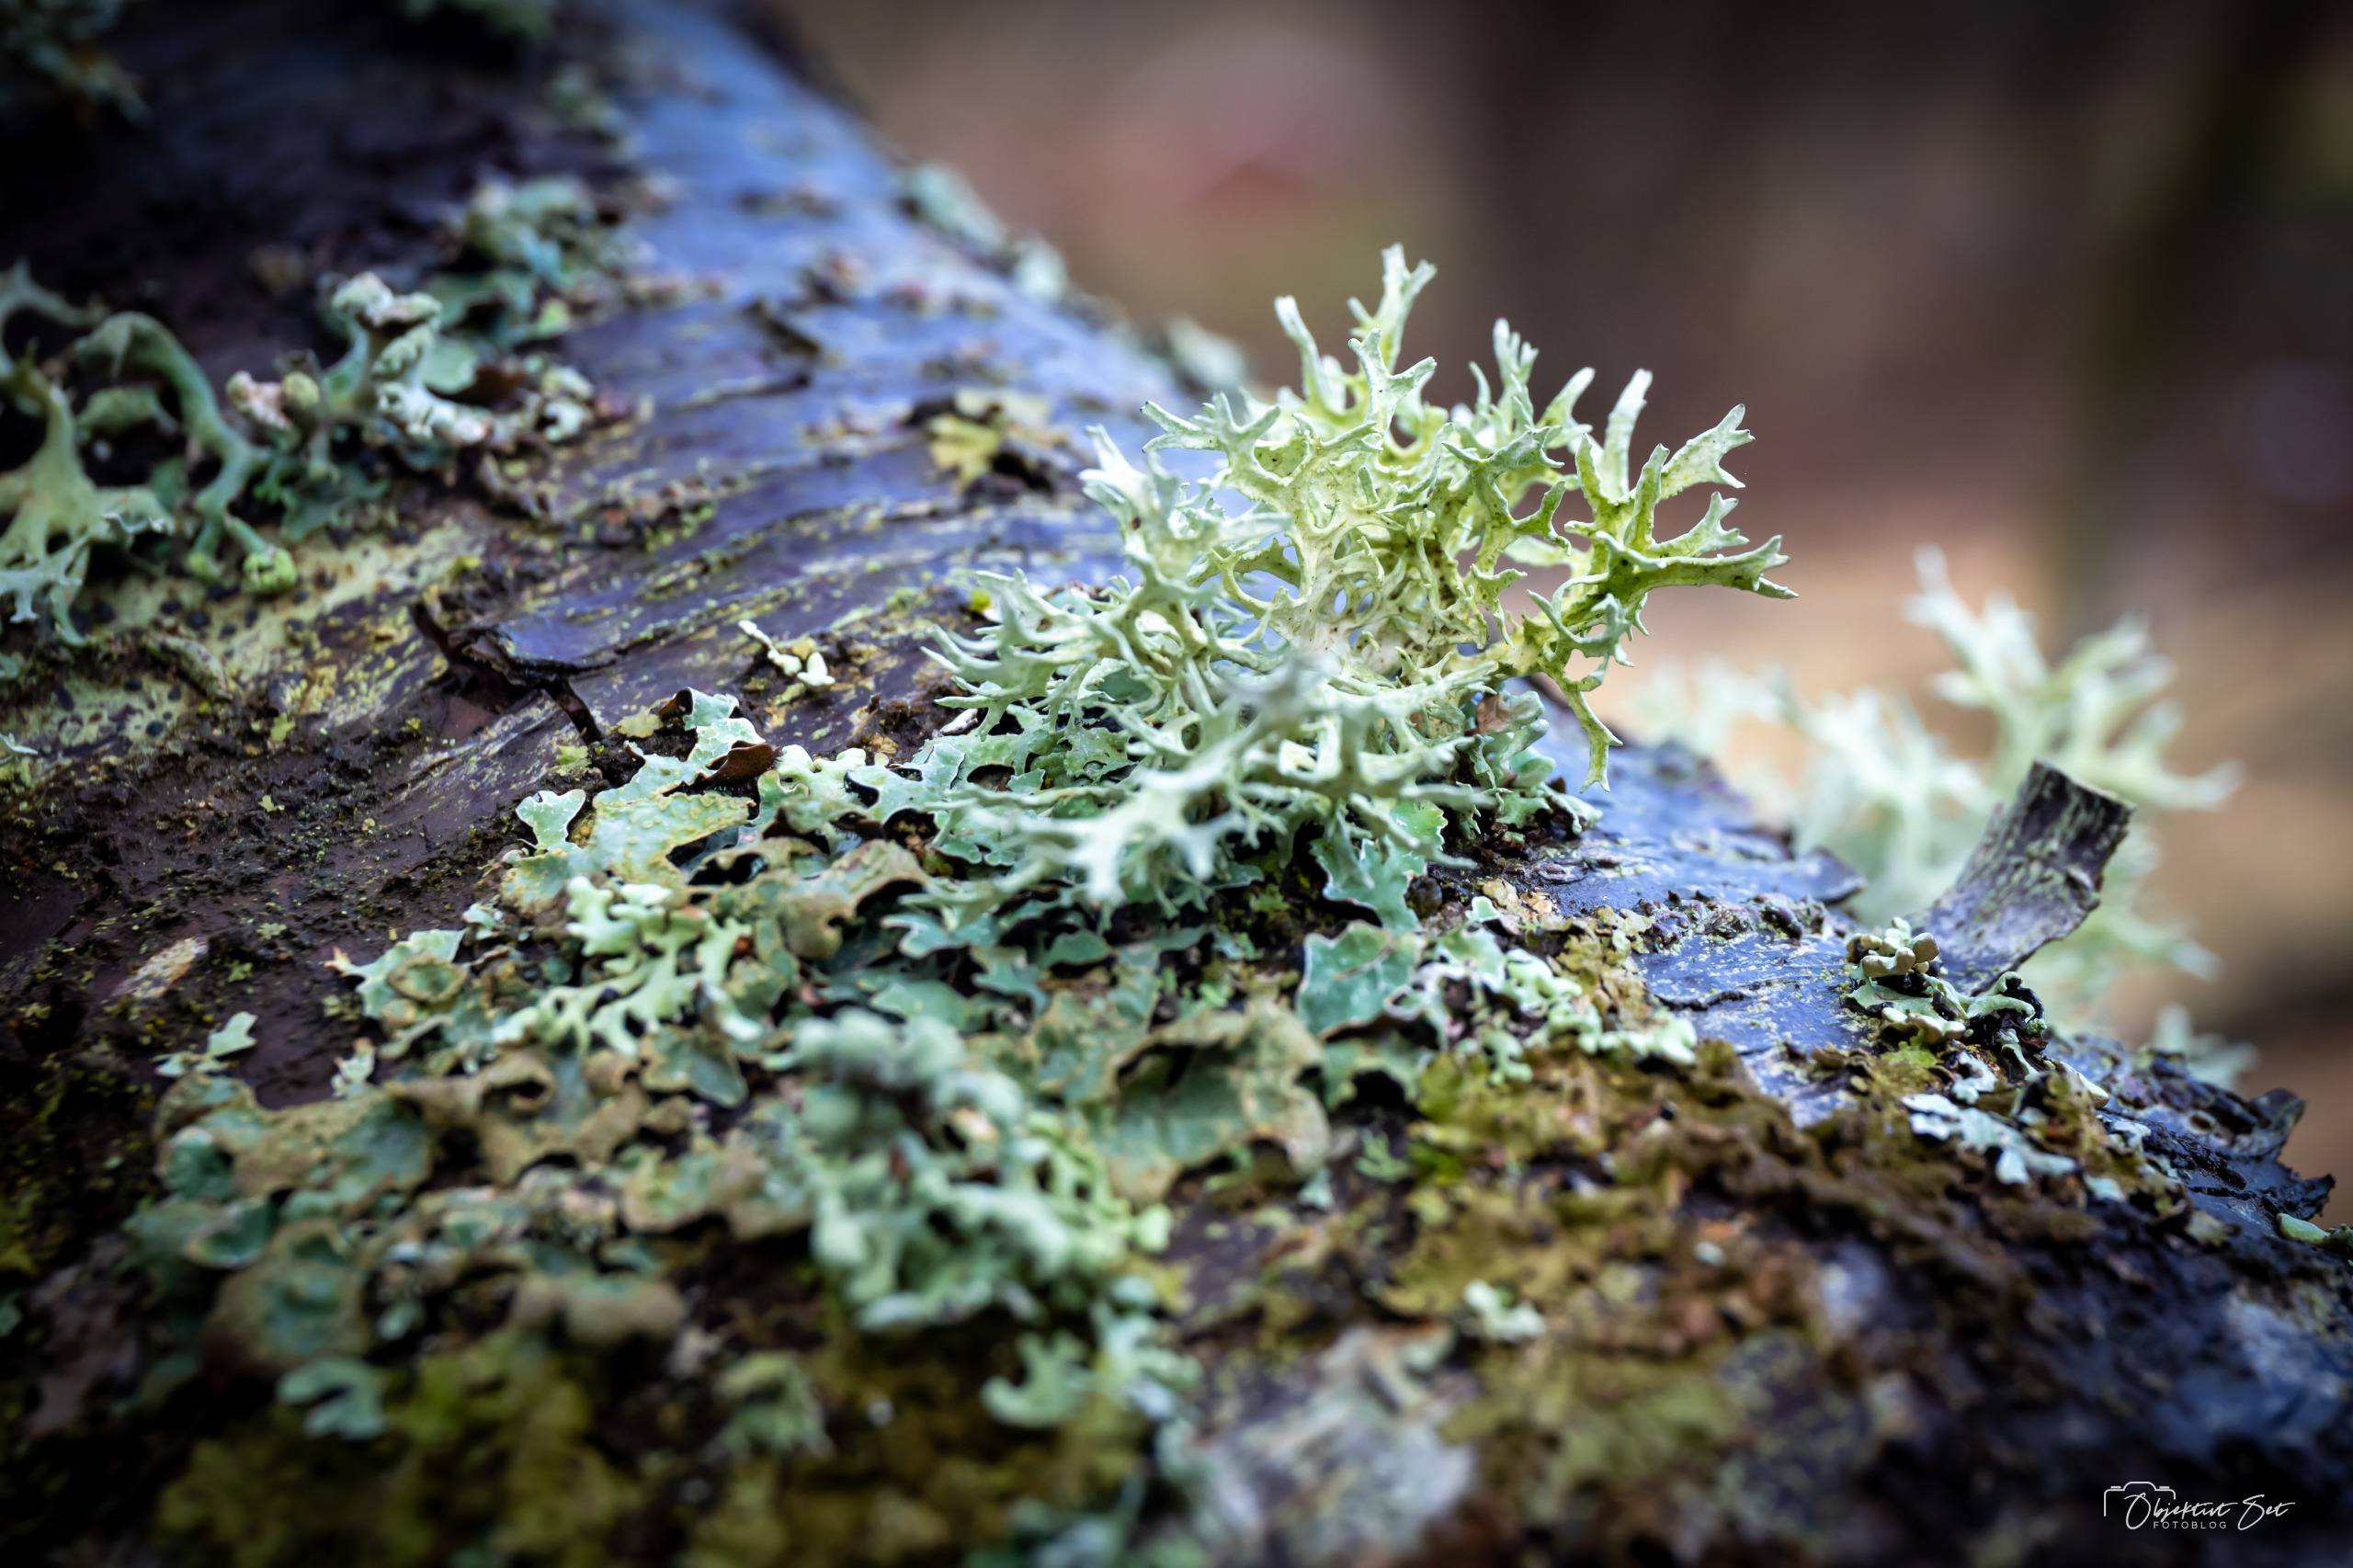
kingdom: Fungi
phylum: Ascomycota
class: Lecanoromycetes
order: Lecanorales
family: Parmeliaceae
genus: Evernia
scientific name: Evernia prunastri
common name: Almindelig slåenlav
